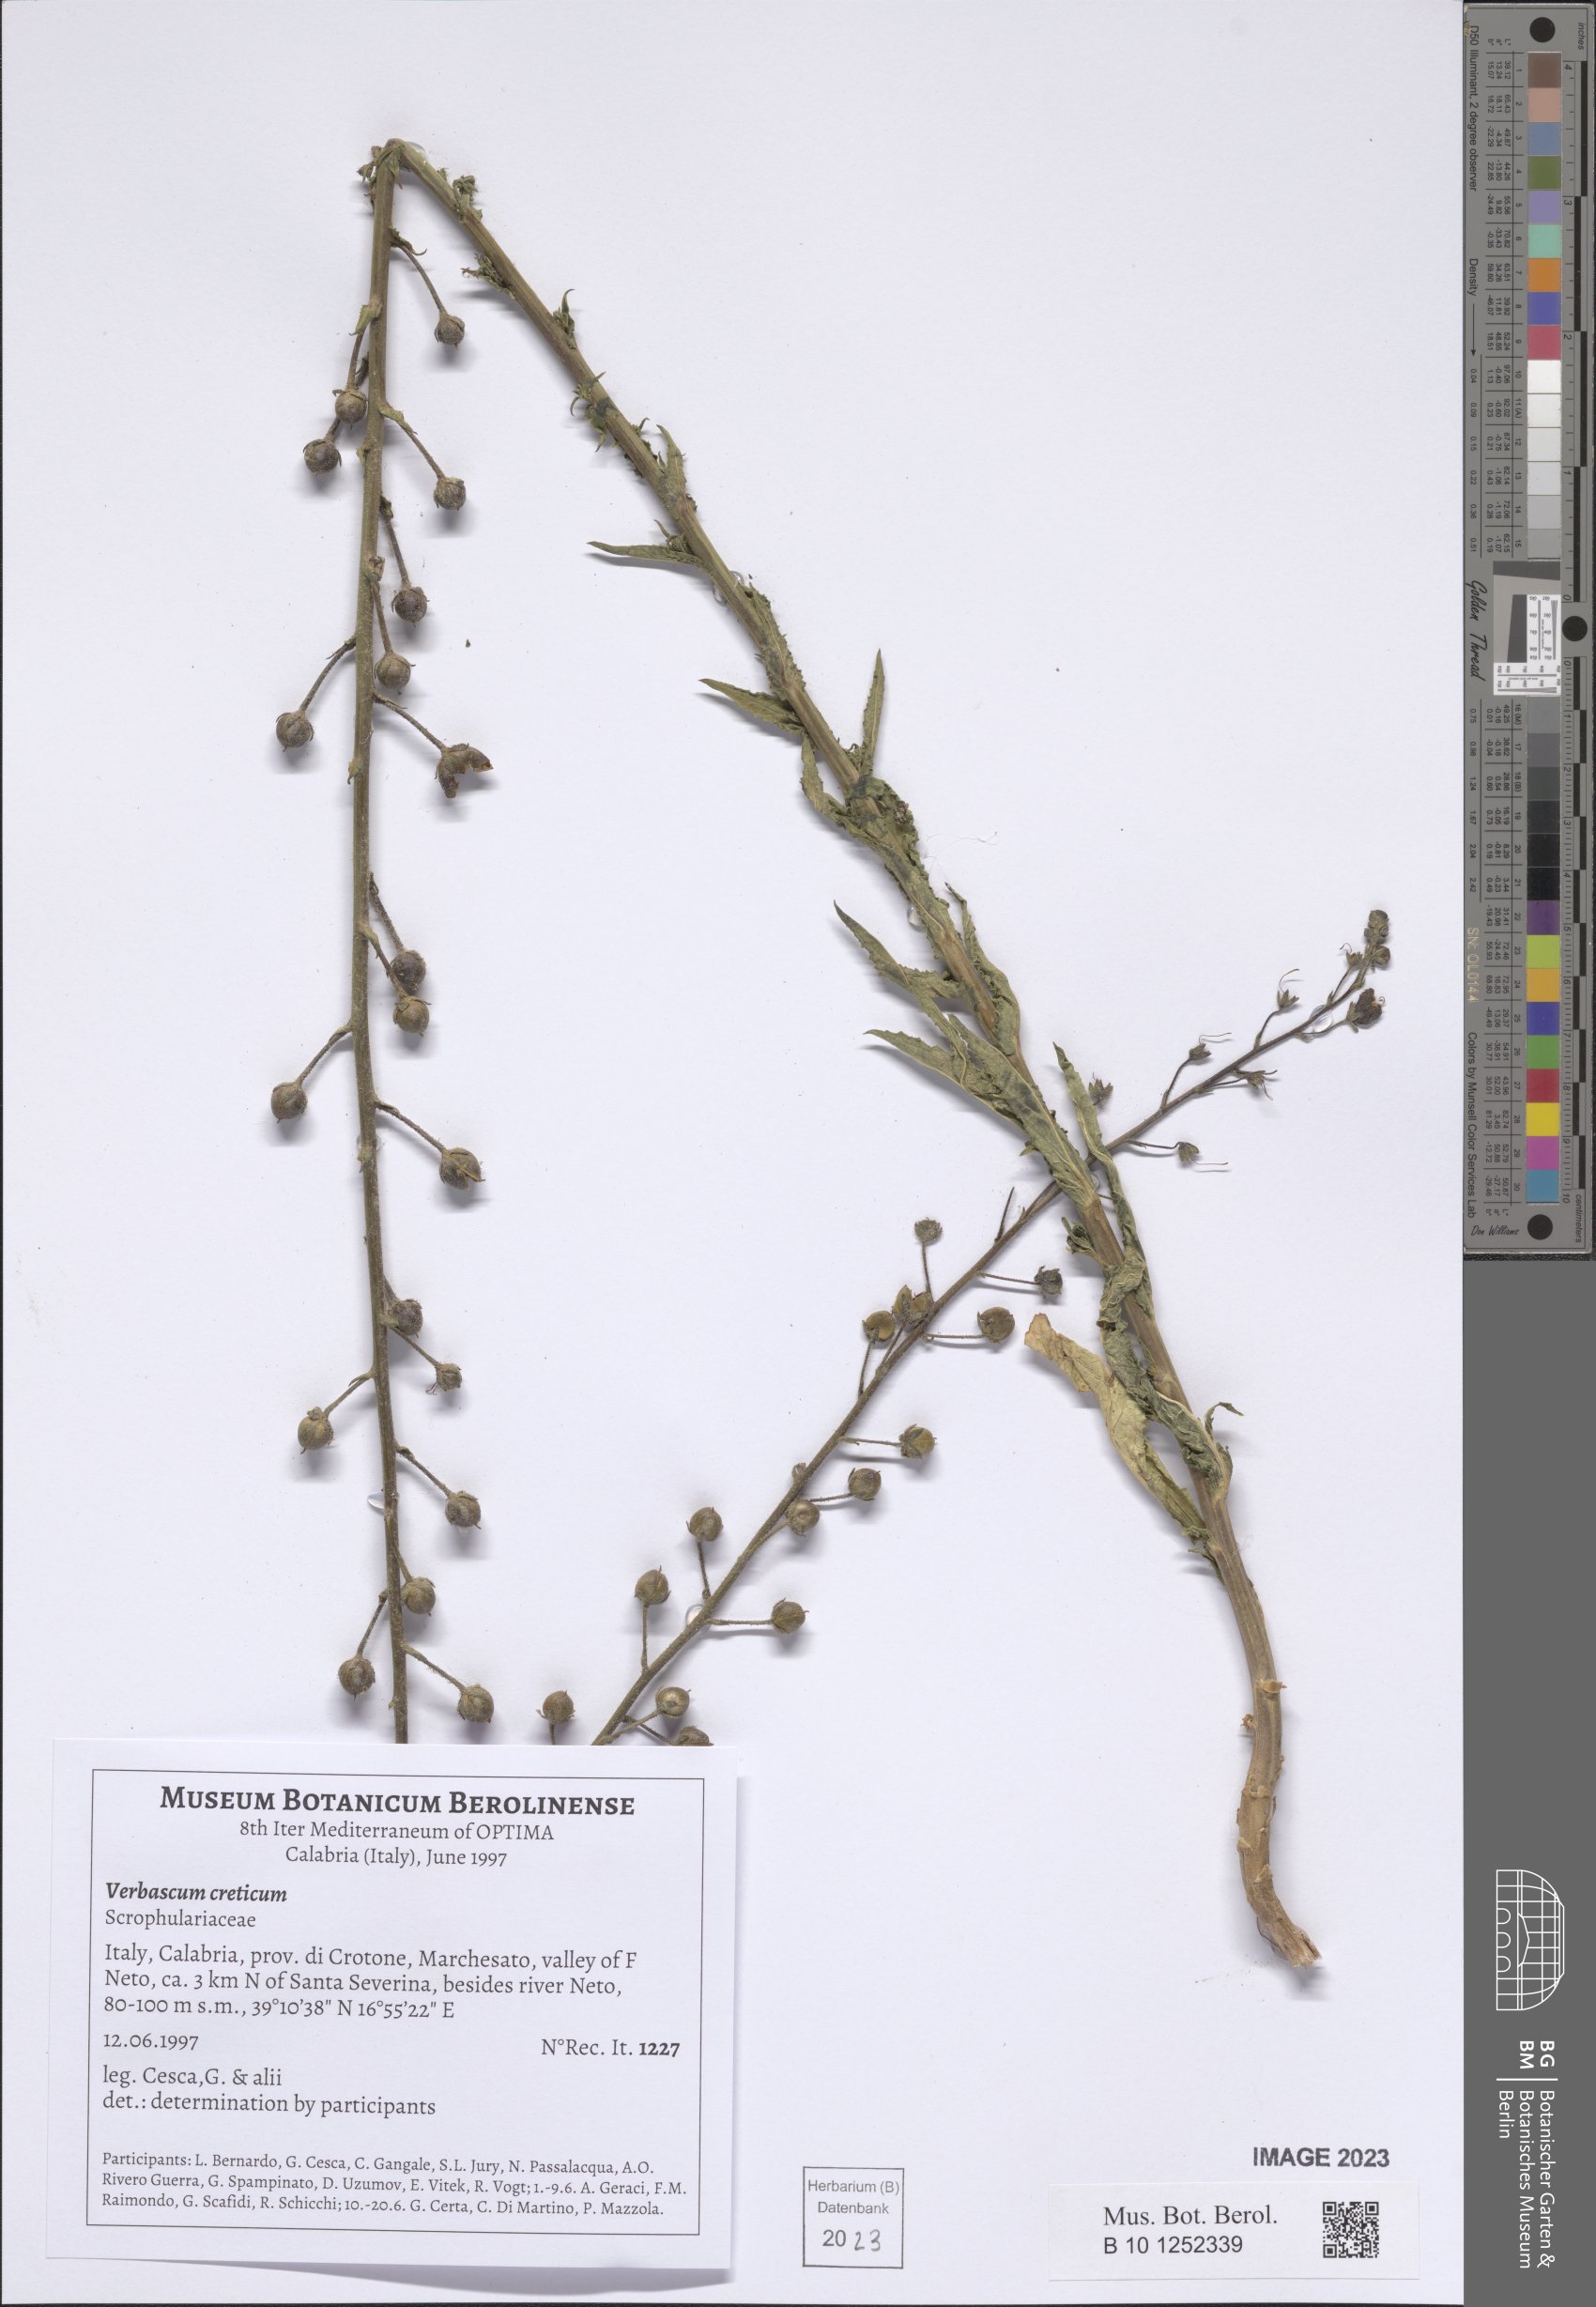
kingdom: Plantae
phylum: Tracheophyta
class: Magnoliopsida
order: Lamiales
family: Scrophulariaceae
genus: Verbascum
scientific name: Verbascum creticum
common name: Cretan mullein
